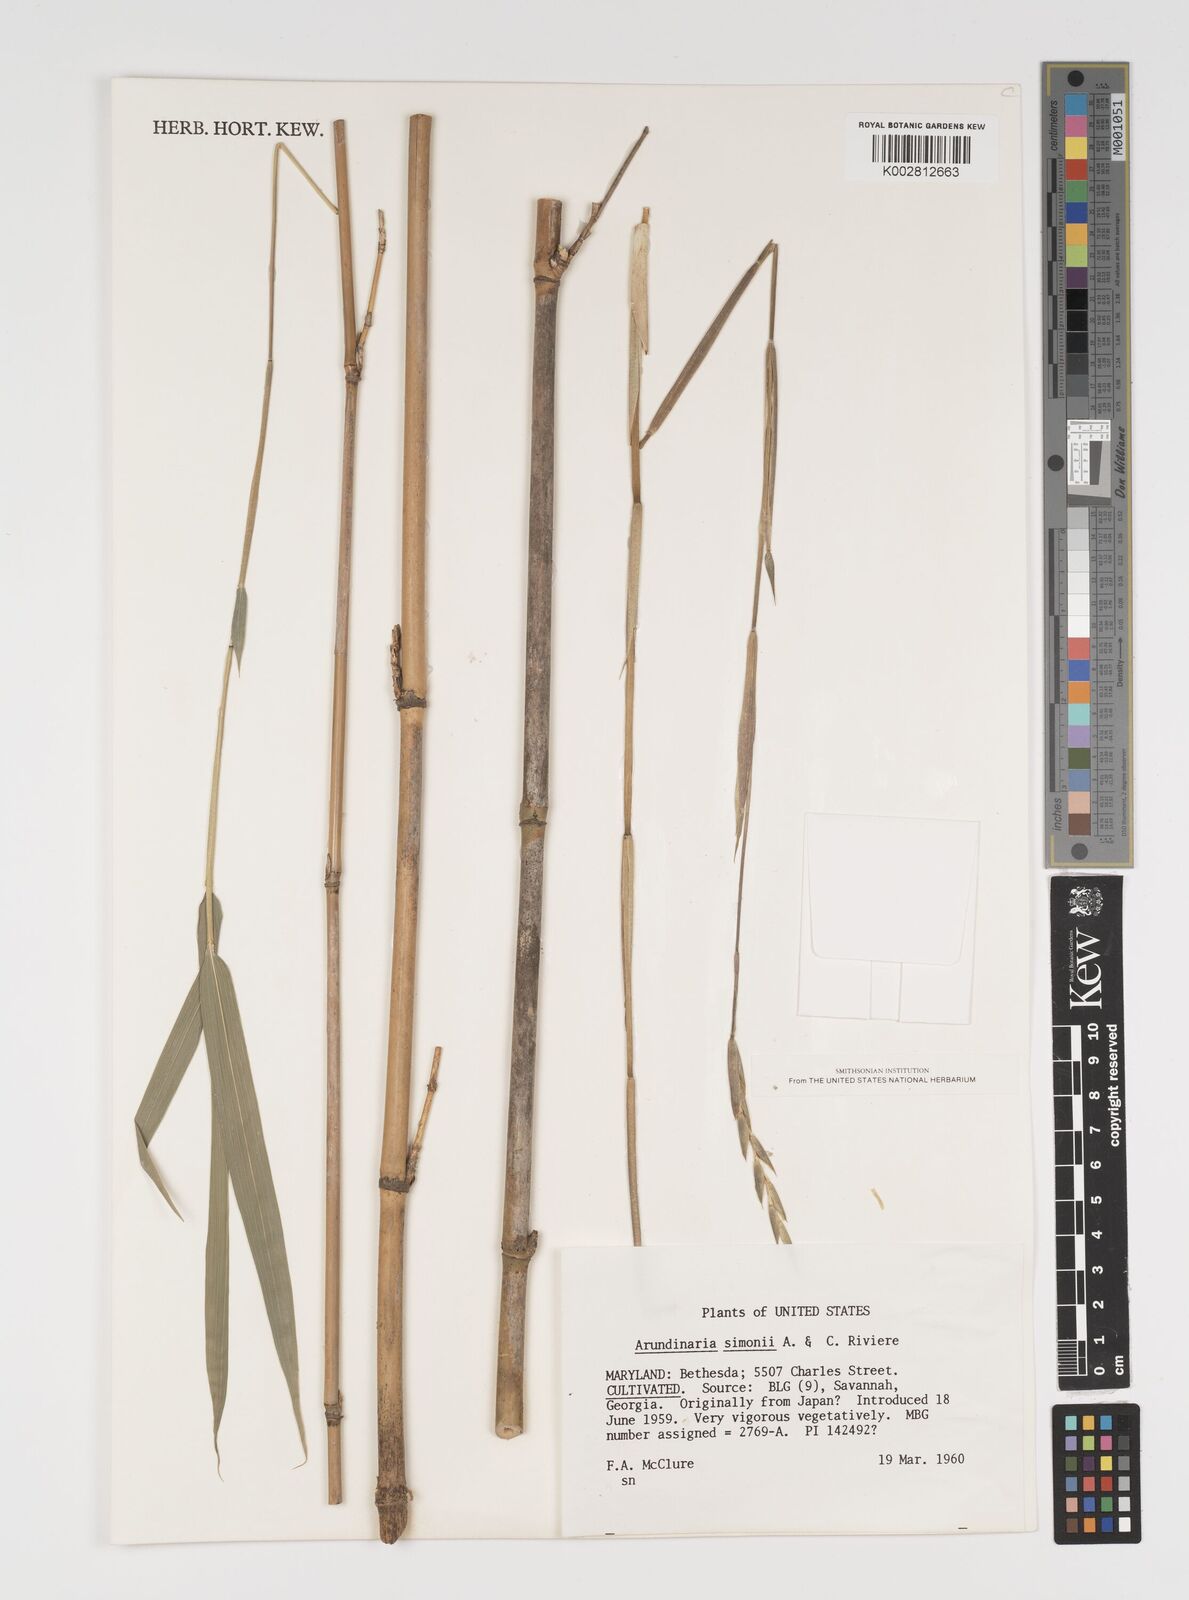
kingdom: Plantae
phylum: Tracheophyta
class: Liliopsida
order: Poales
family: Poaceae
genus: Pleioblastus
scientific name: Pleioblastus simonii
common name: Simon bamboo
